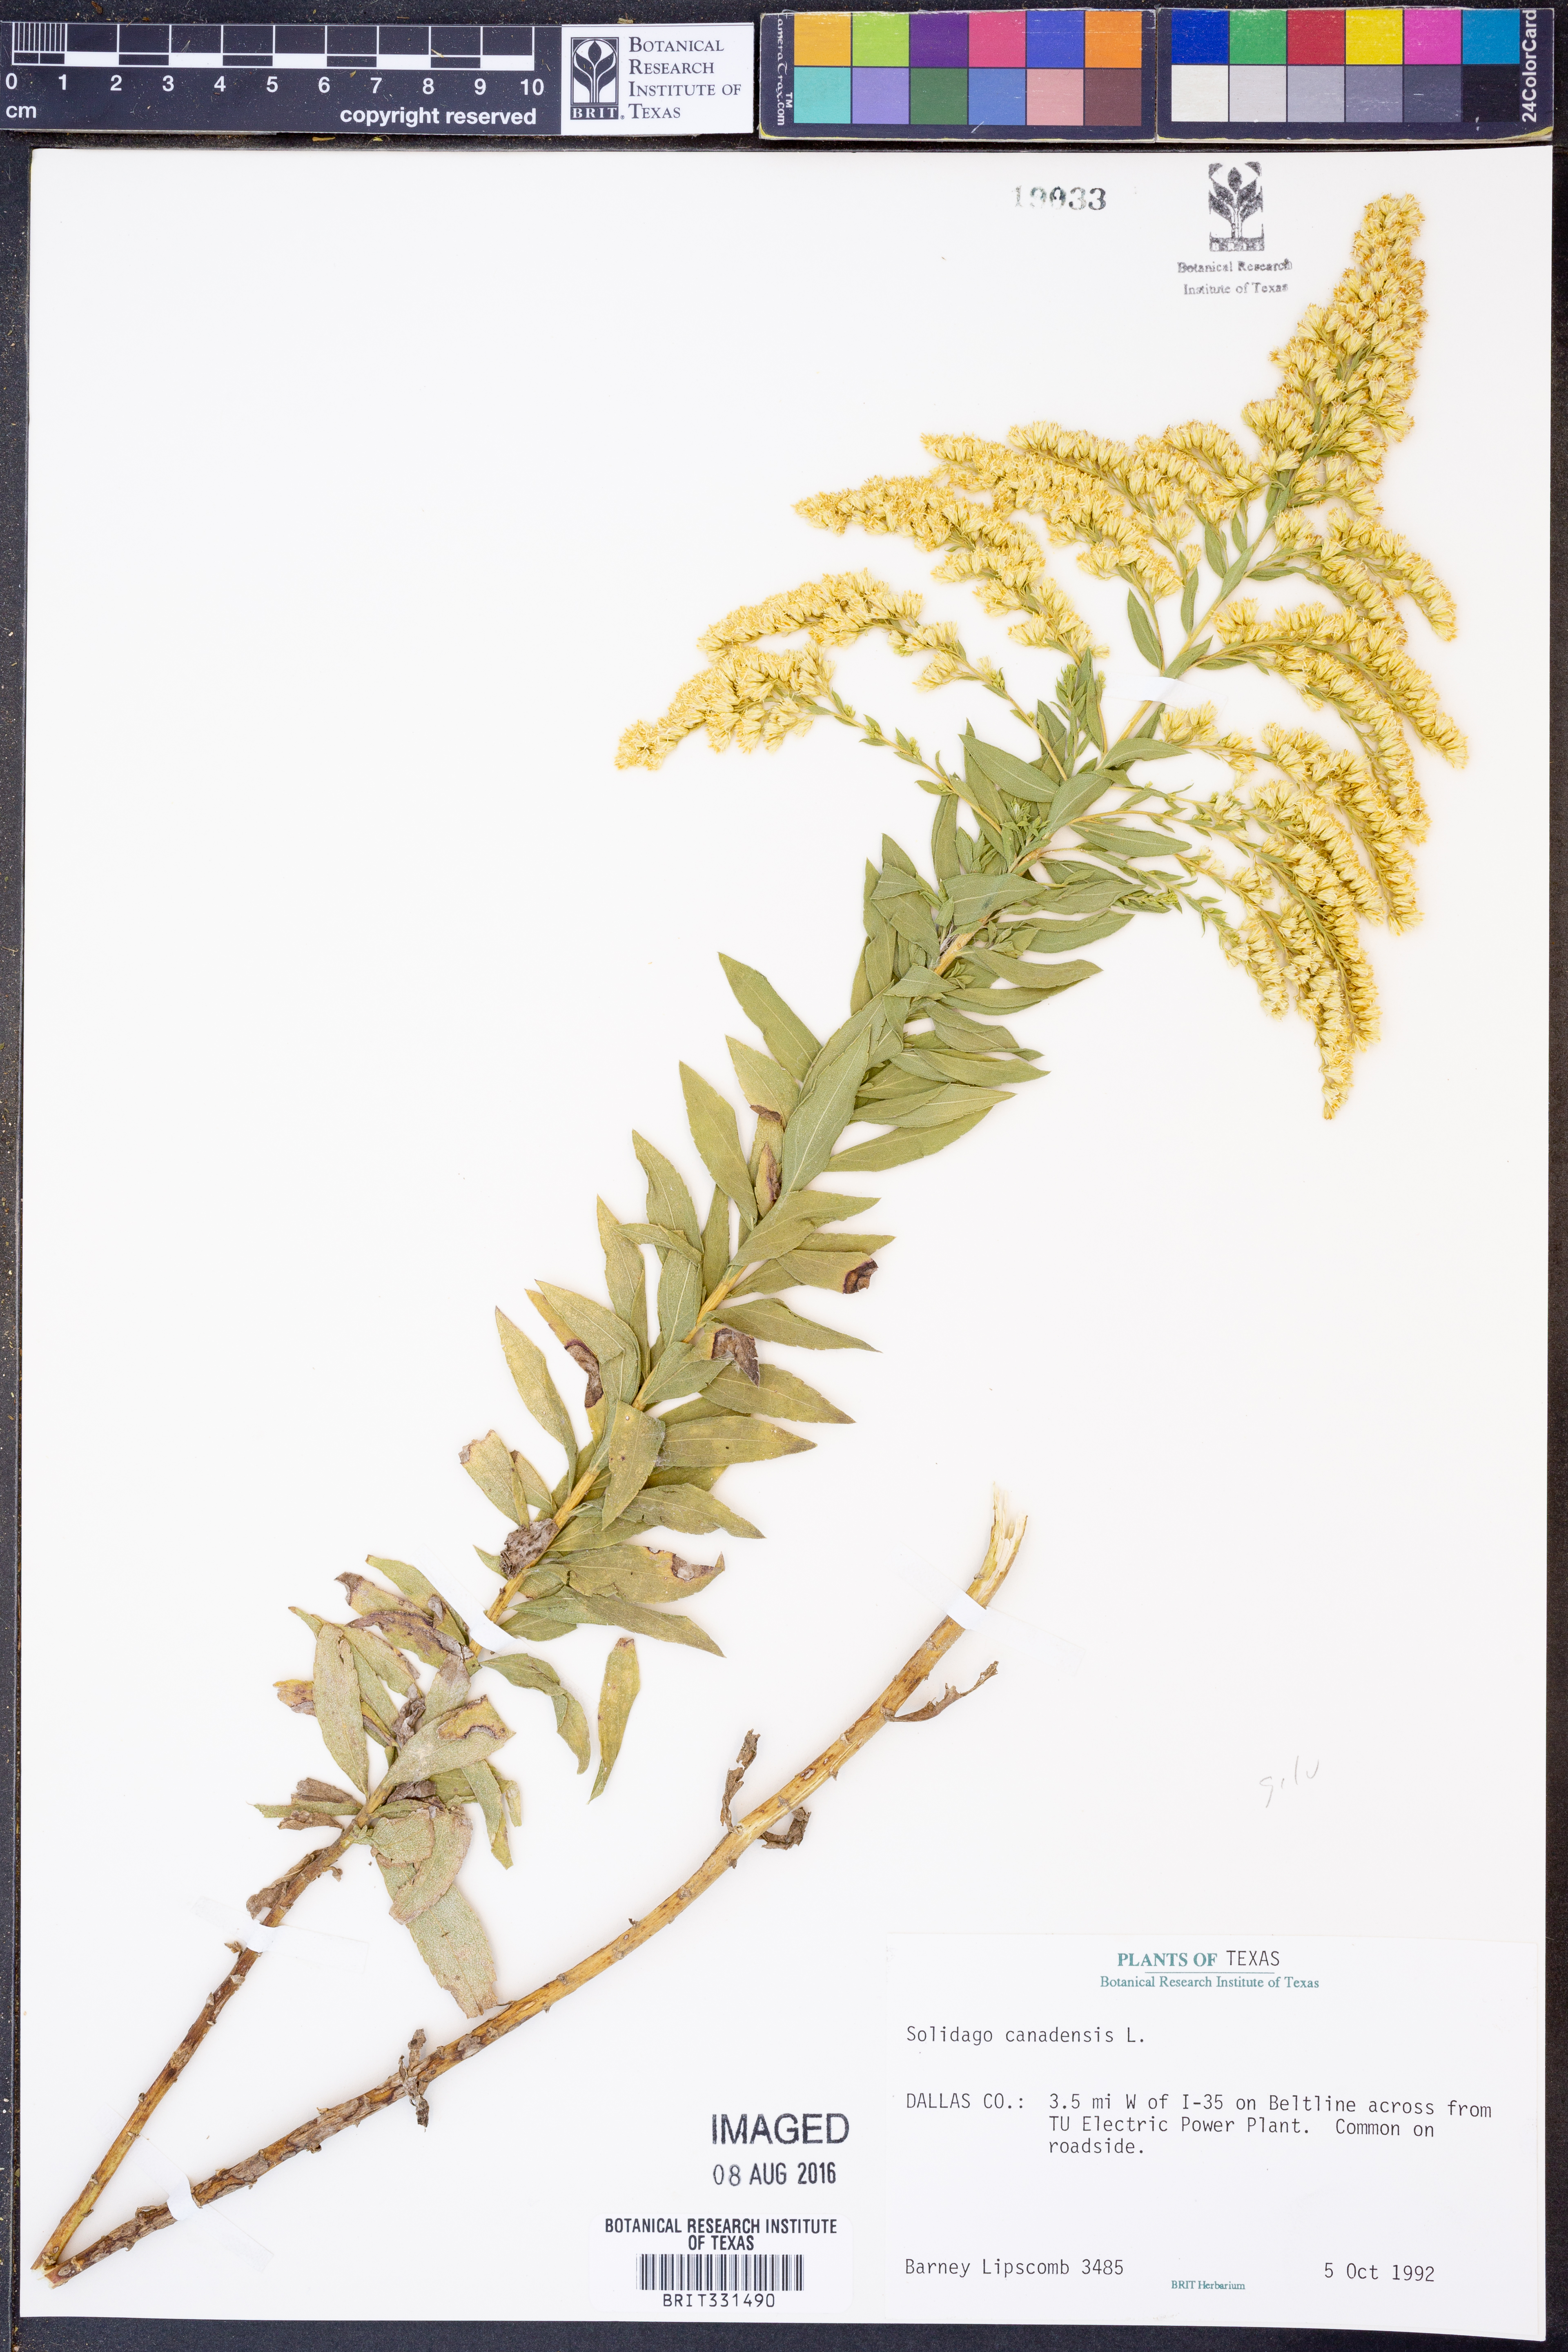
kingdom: Plantae
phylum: Tracheophyta
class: Magnoliopsida
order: Asterales
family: Asteraceae
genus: Solidago
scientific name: Solidago canadensis
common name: Canada goldenrod
